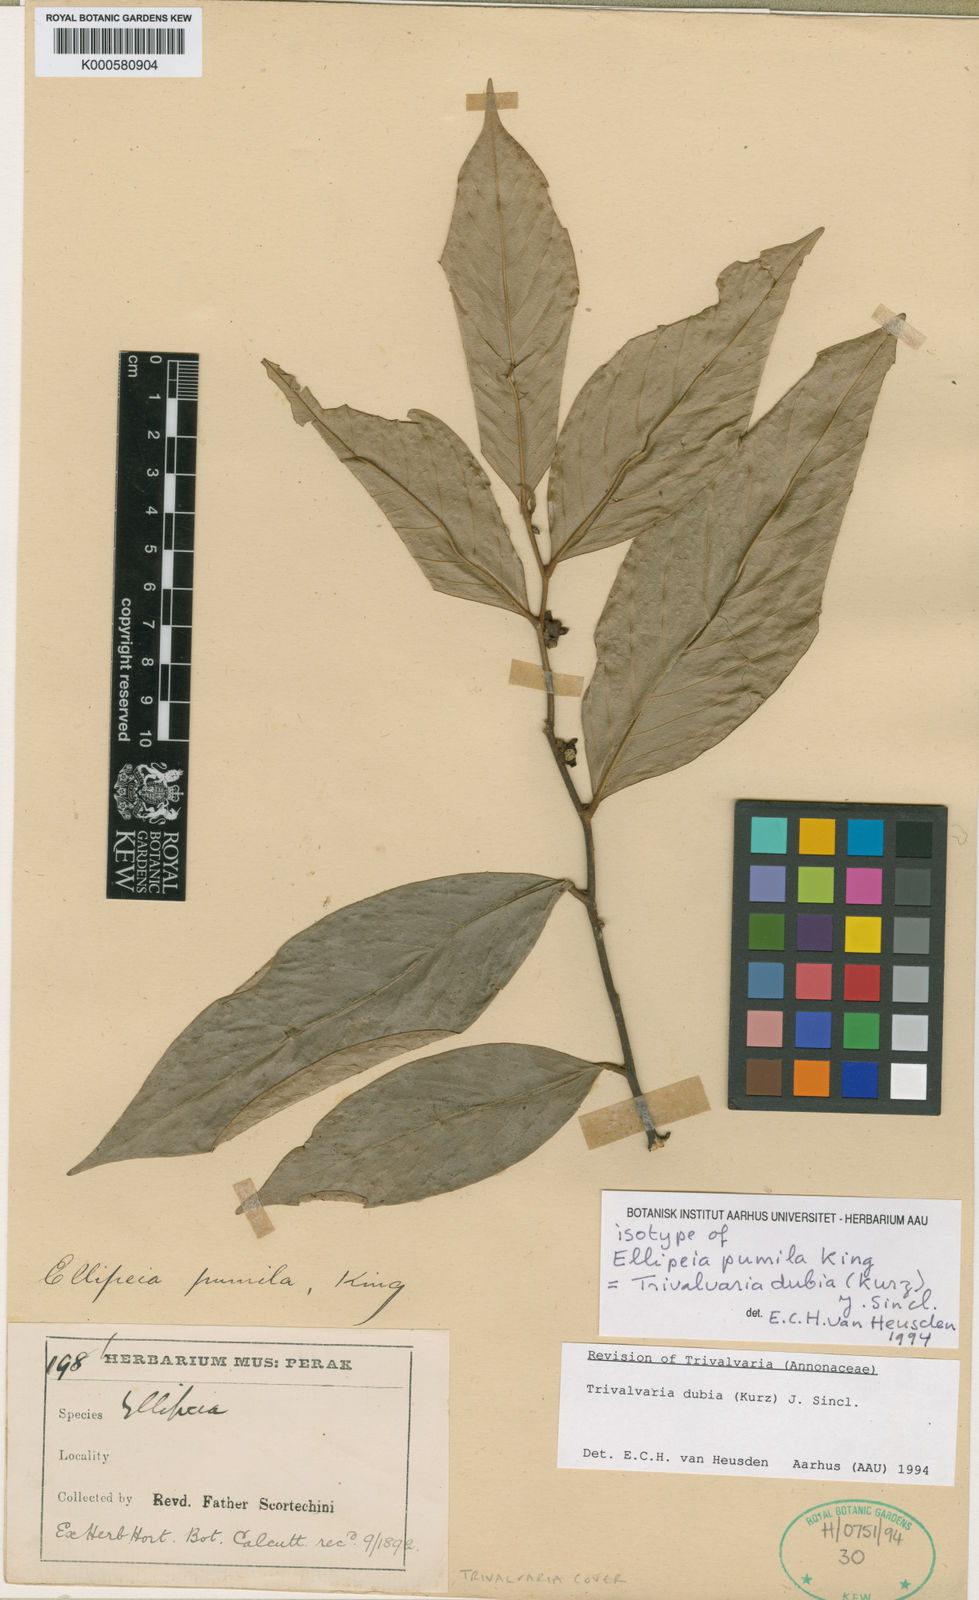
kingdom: Plantae
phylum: Tracheophyta
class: Magnoliopsida
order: Magnoliales
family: Annonaceae
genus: Trivalvaria
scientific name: Trivalvaria dubia
